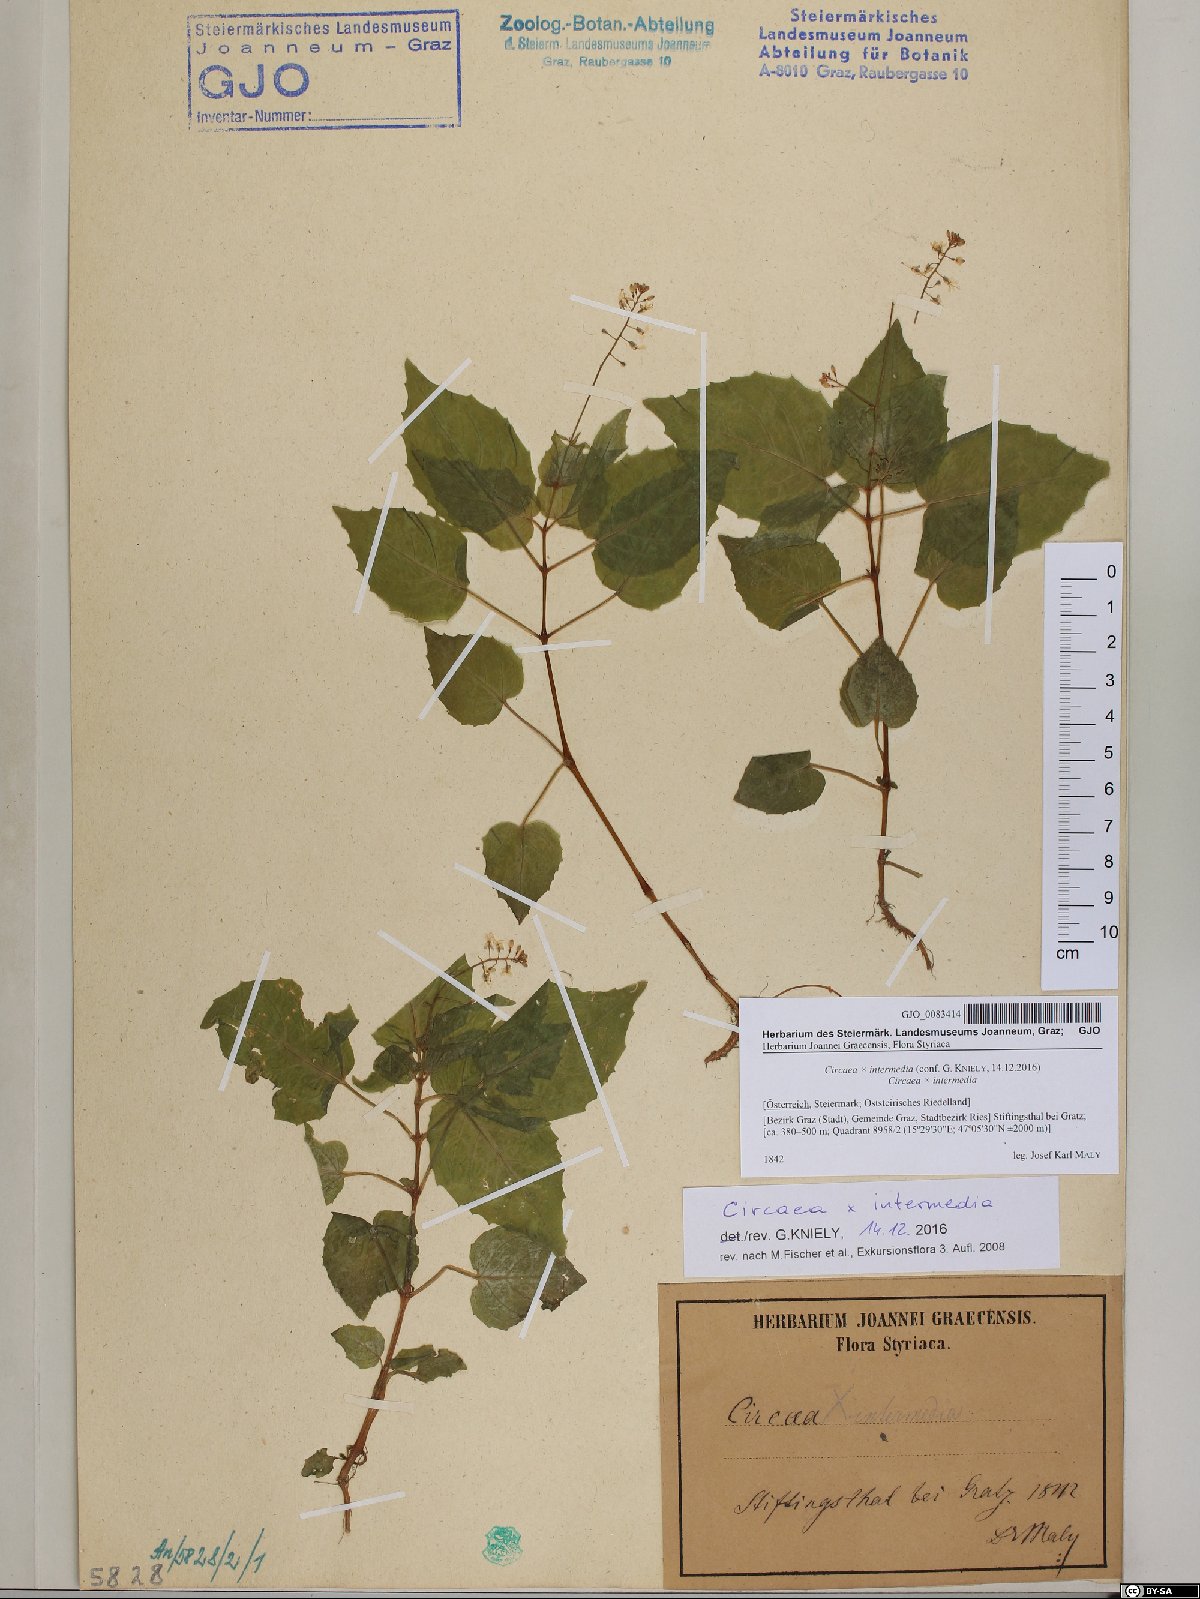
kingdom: Plantae
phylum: Tracheophyta
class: Magnoliopsida
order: Myrtales
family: Onagraceae
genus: Circaea
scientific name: Circaea intermedia
